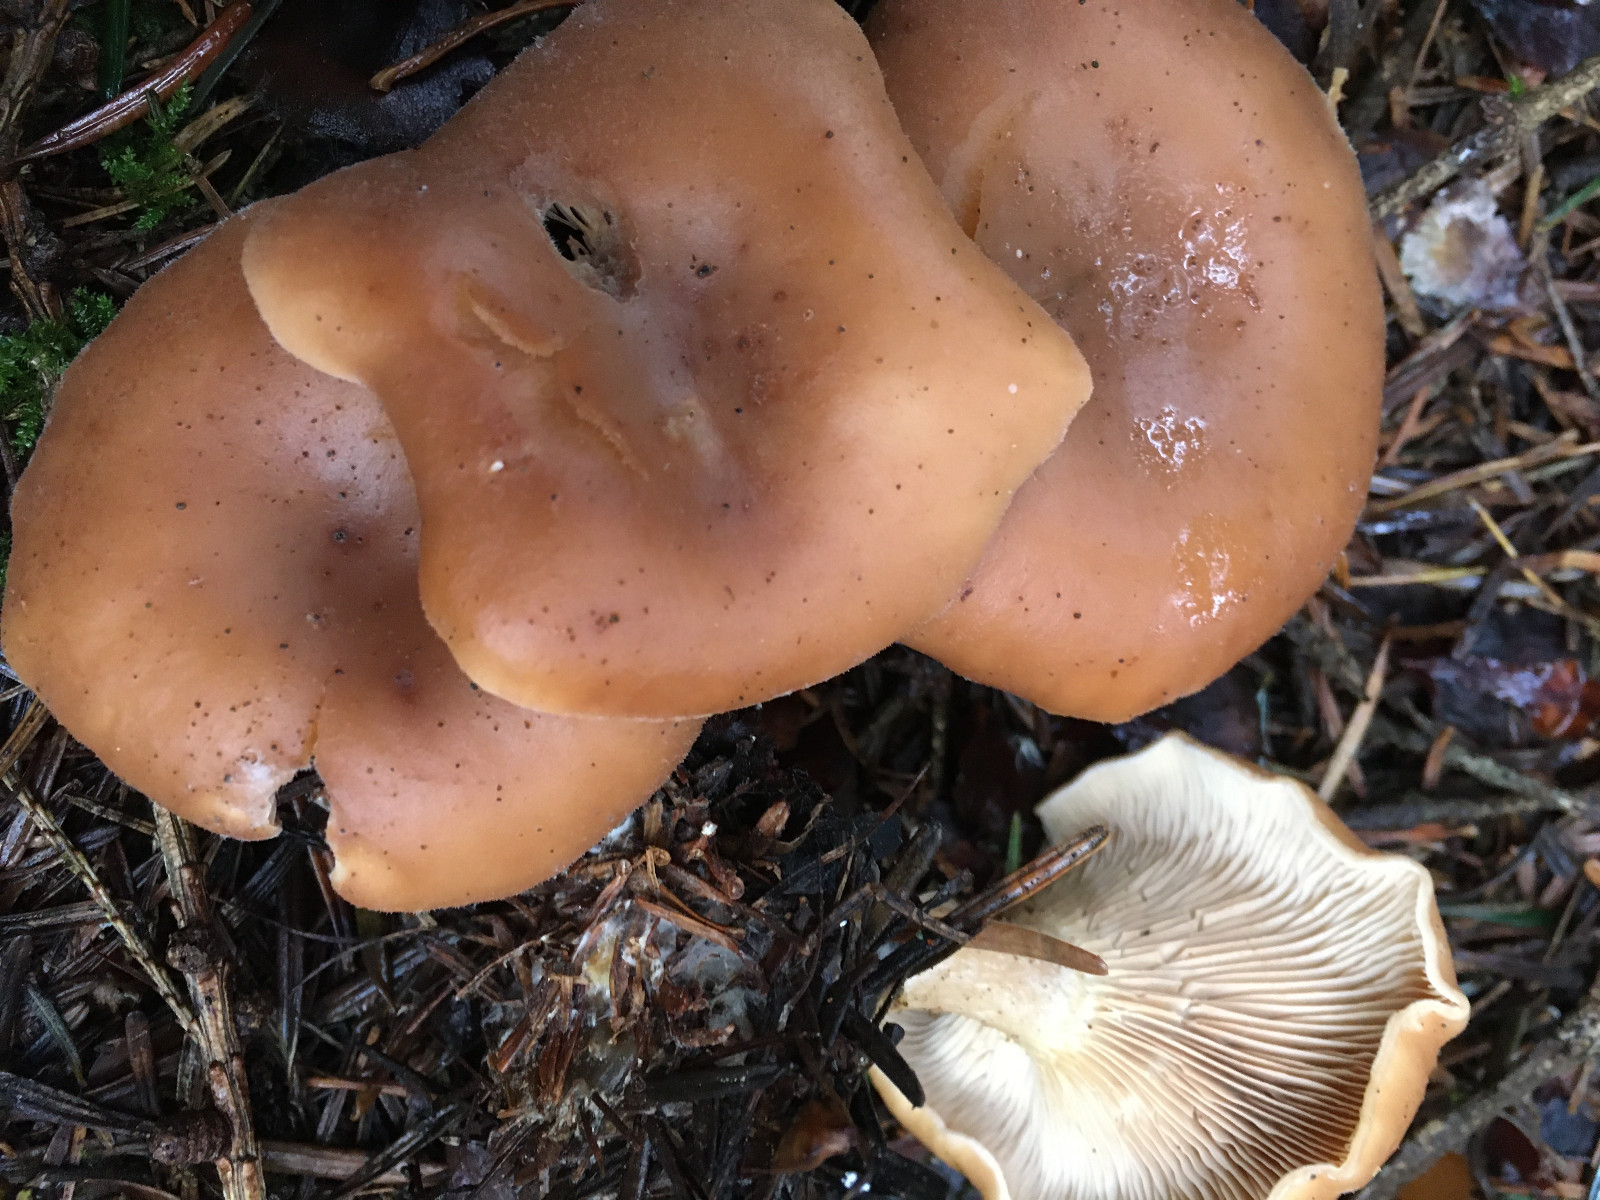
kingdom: Fungi
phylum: Basidiomycota
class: Agaricomycetes
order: Agaricales
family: Tricholomataceae
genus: Paralepista
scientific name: Paralepista flaccida
